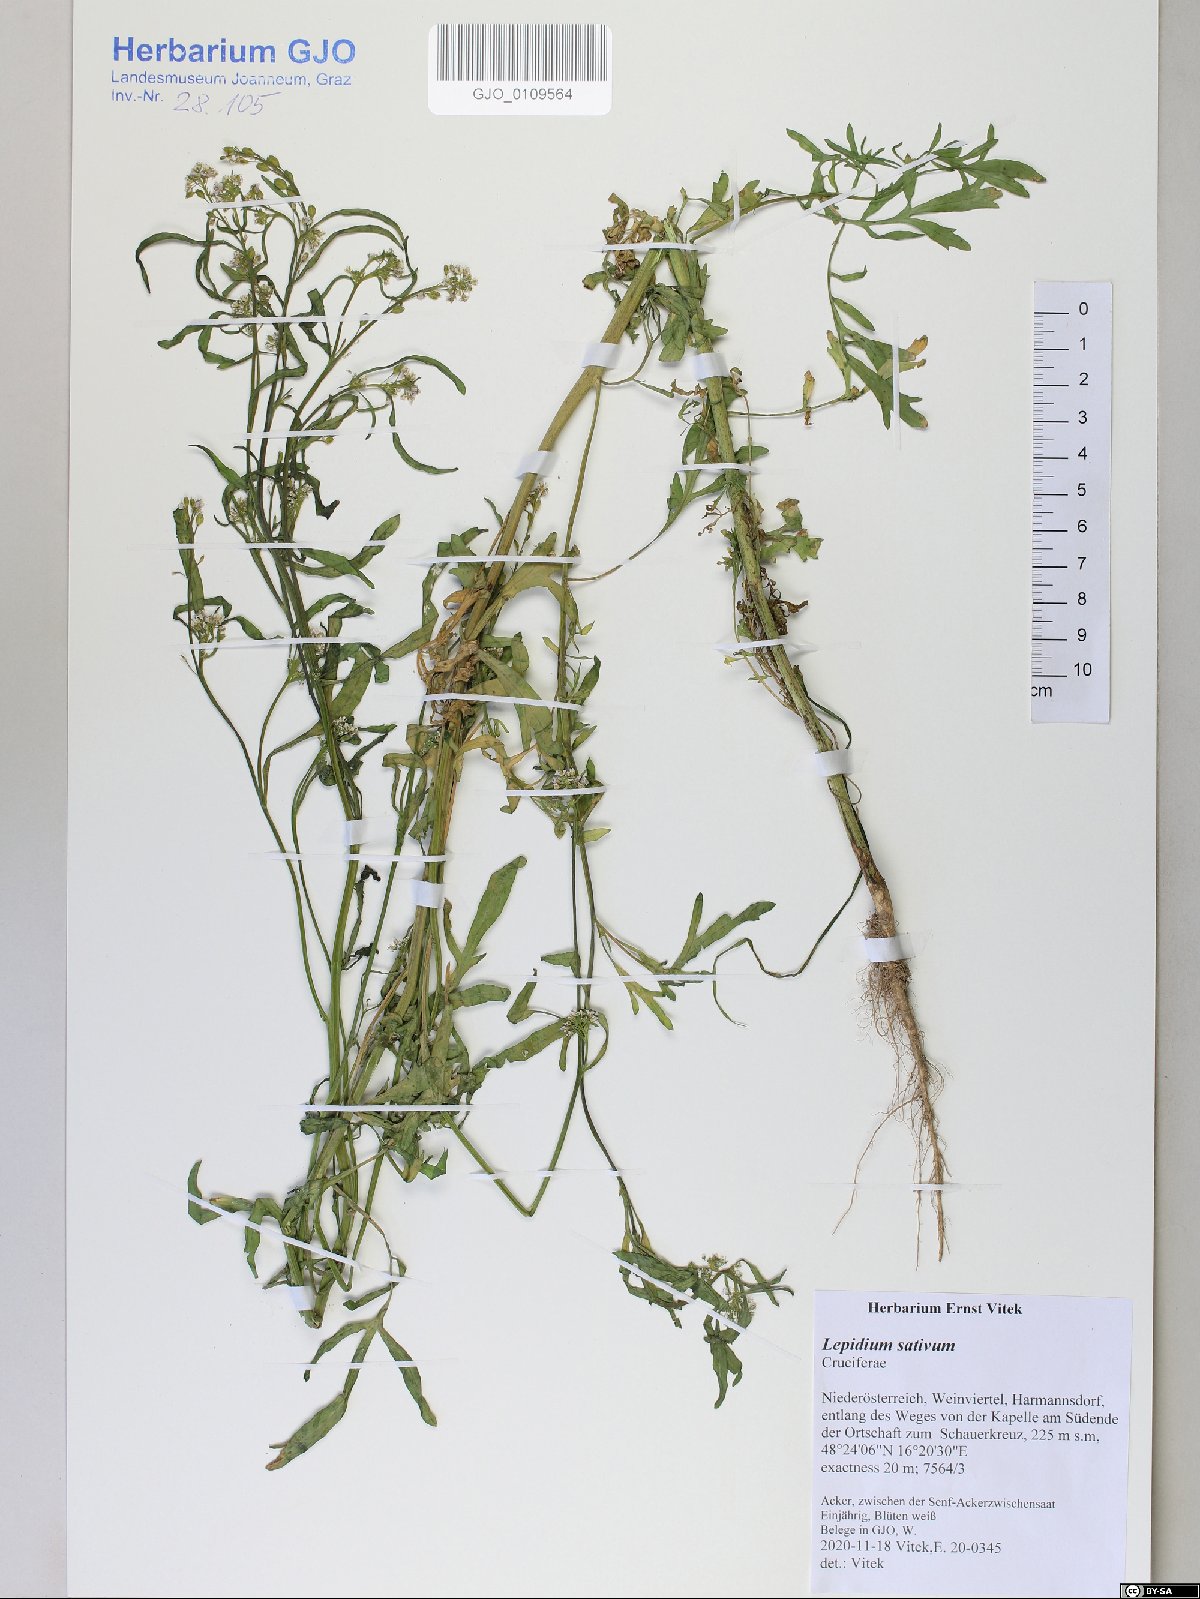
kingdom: Plantae
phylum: Tracheophyta
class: Magnoliopsida
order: Brassicales
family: Brassicaceae
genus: Lepidium
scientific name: Lepidium sativum
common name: Garden cress
